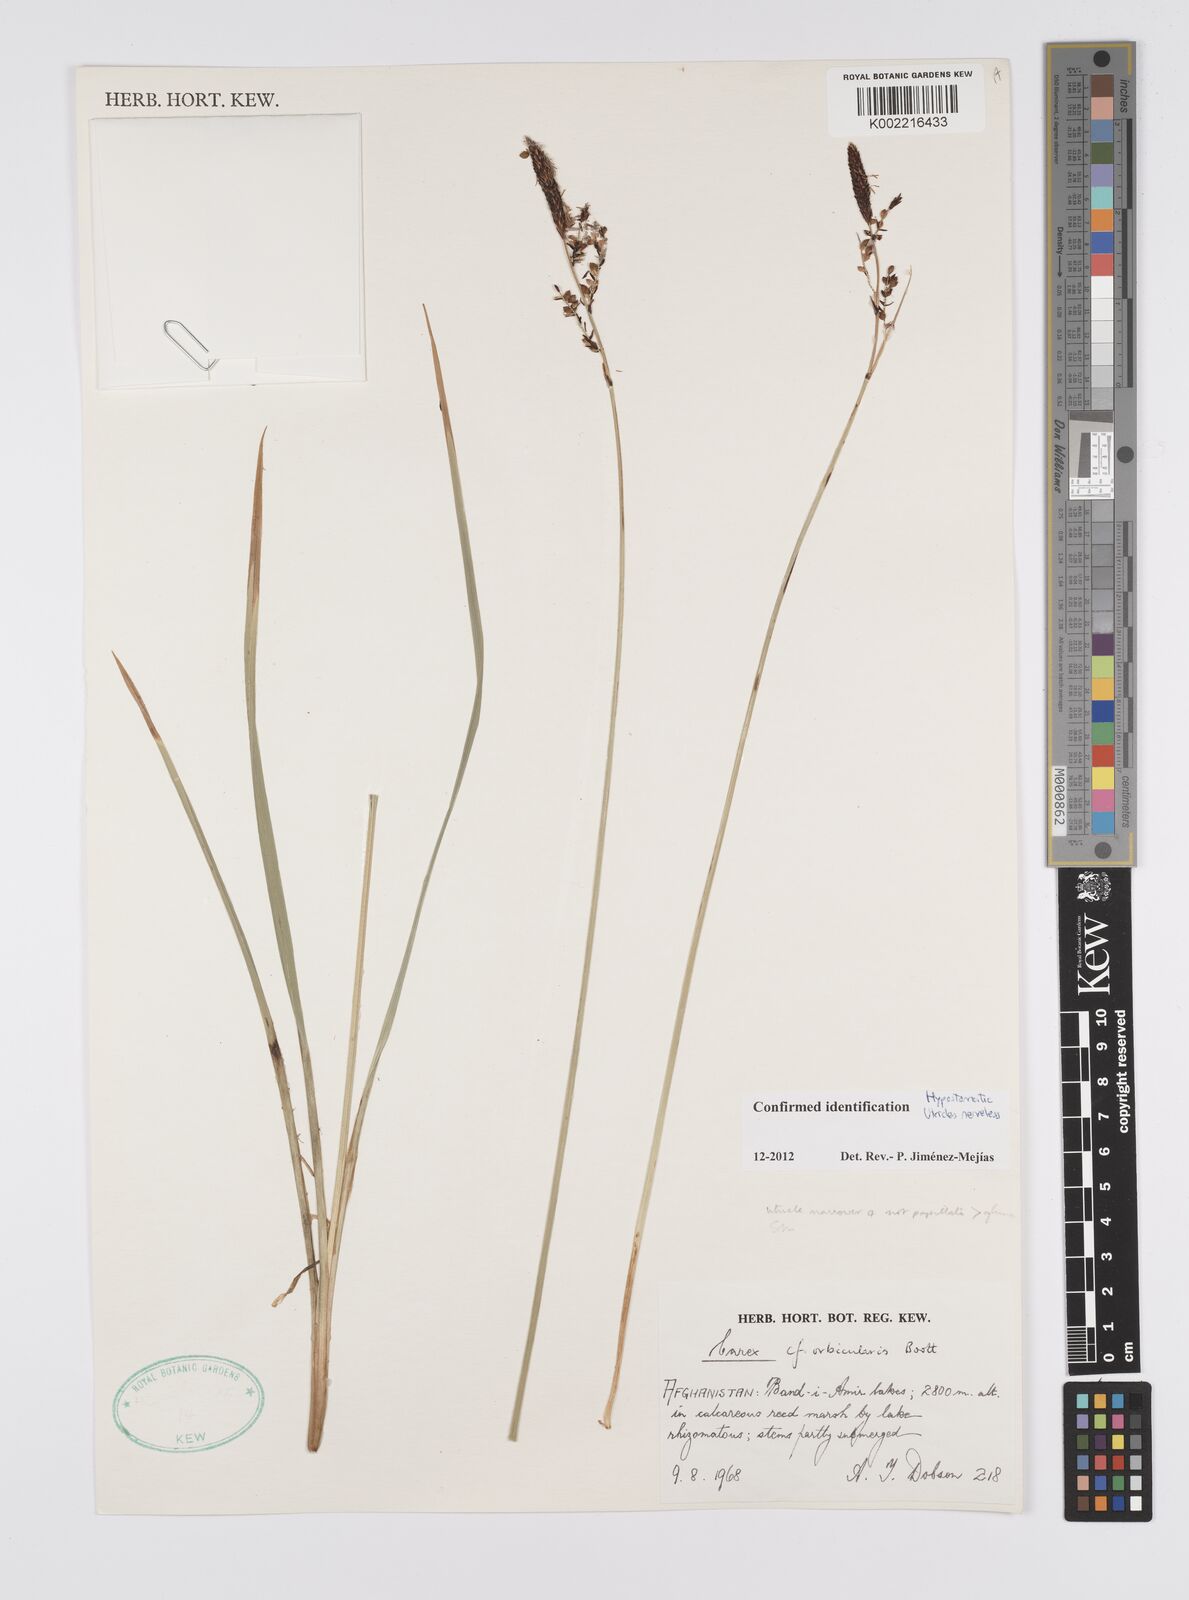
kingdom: Plantae
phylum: Tracheophyta
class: Liliopsida
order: Poales
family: Cyperaceae
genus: Carex
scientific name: Carex orbicularis
